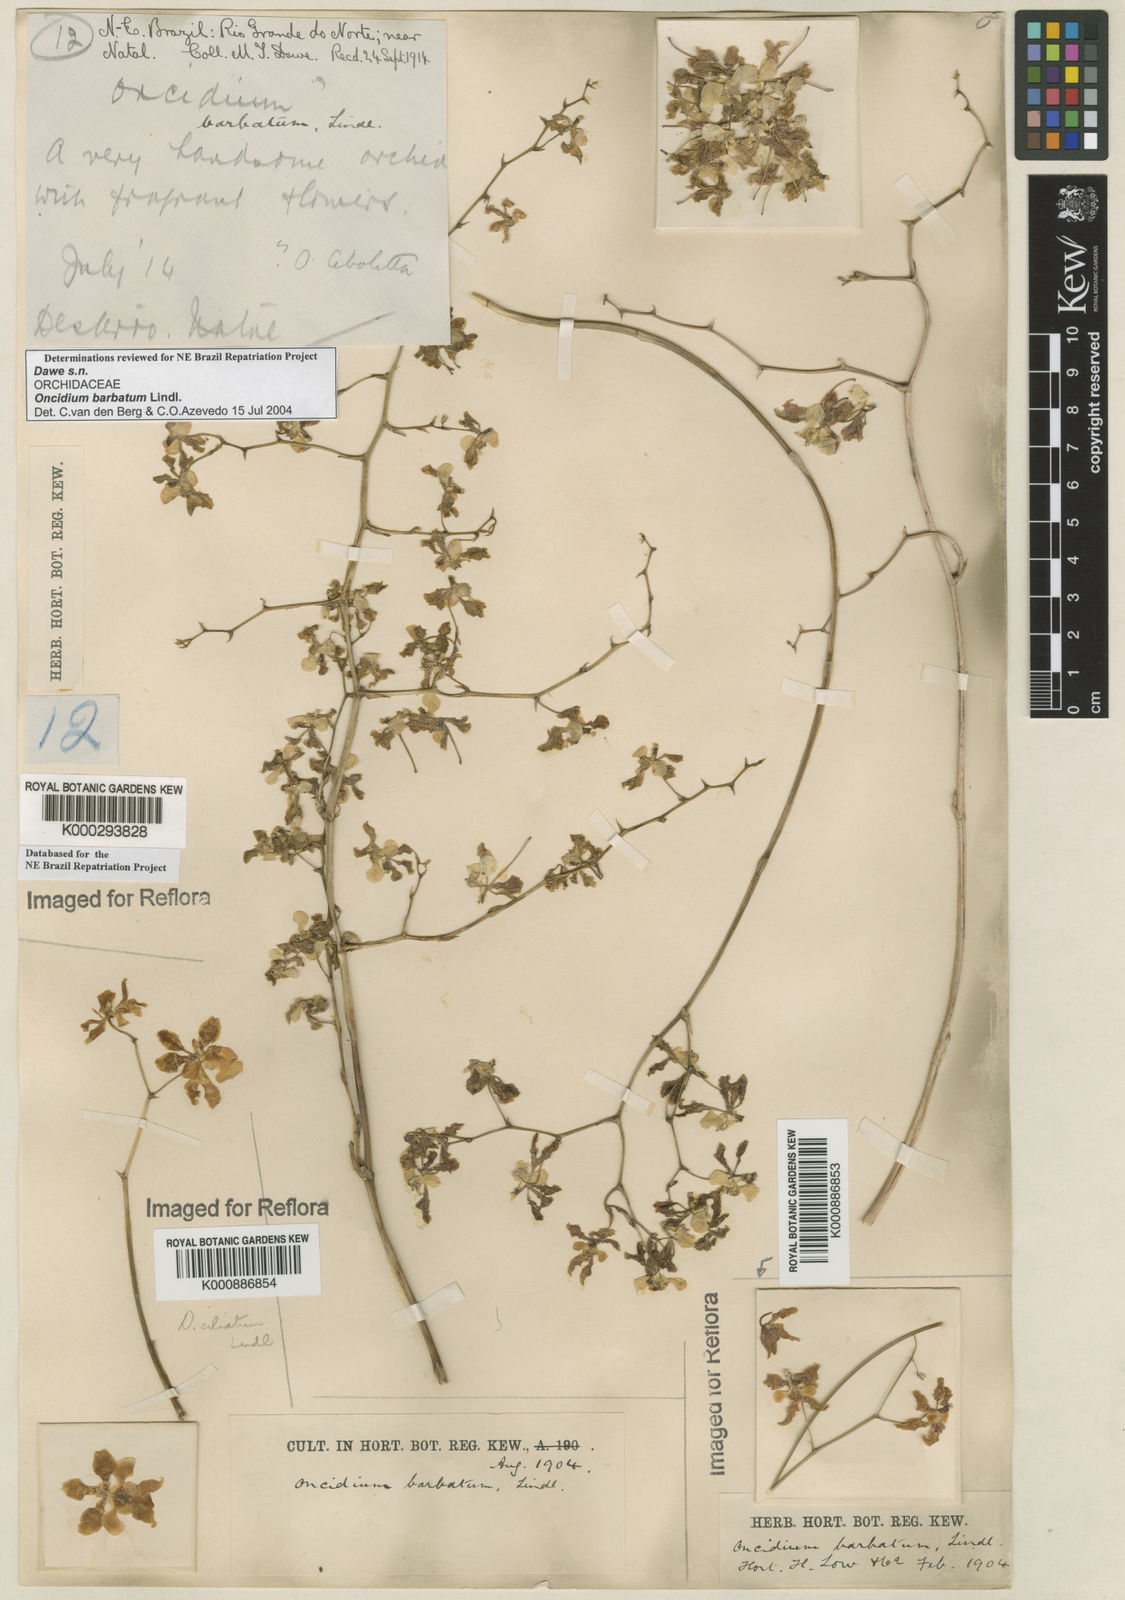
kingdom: Plantae
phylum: Tracheophyta
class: Liliopsida
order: Asparagales
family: Orchidaceae
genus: Gomesa
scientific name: Gomesa barbata
